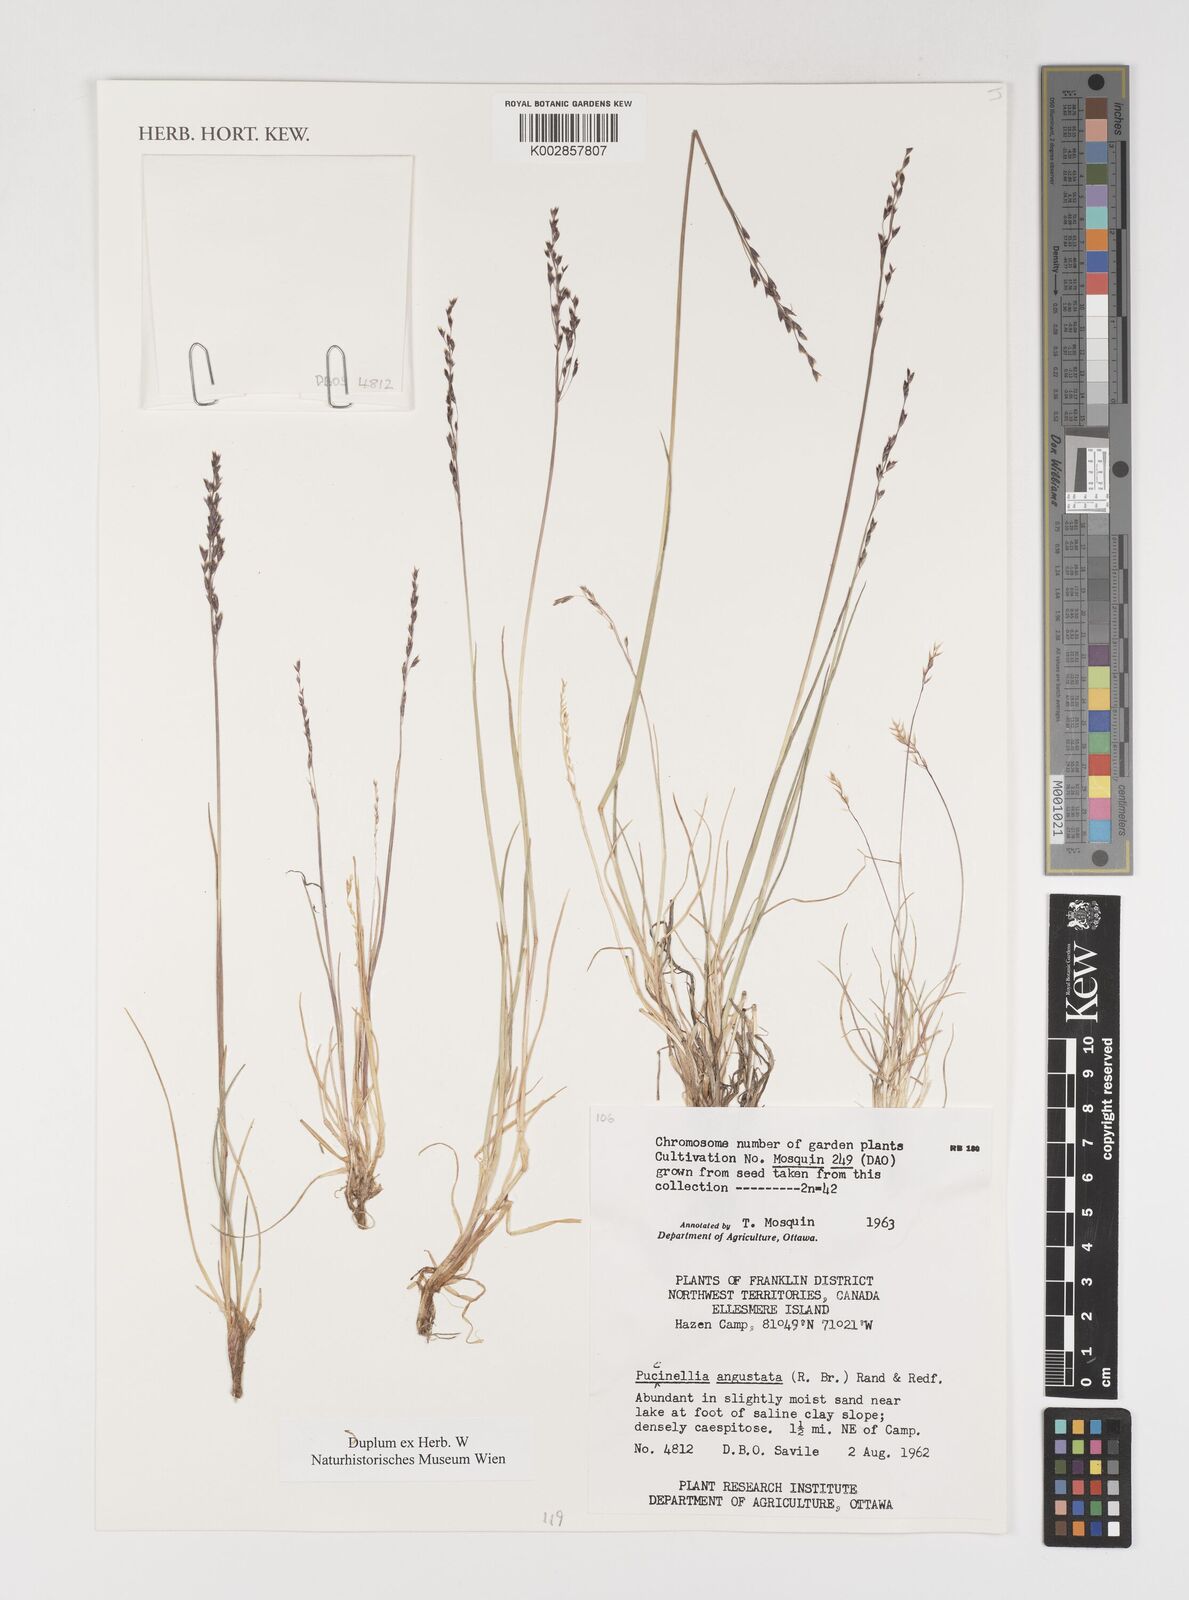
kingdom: Plantae
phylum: Tracheophyta
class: Liliopsida
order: Poales
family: Poaceae
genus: Puccinellia
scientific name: Puccinellia angustata
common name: Narrow alkaligrass
